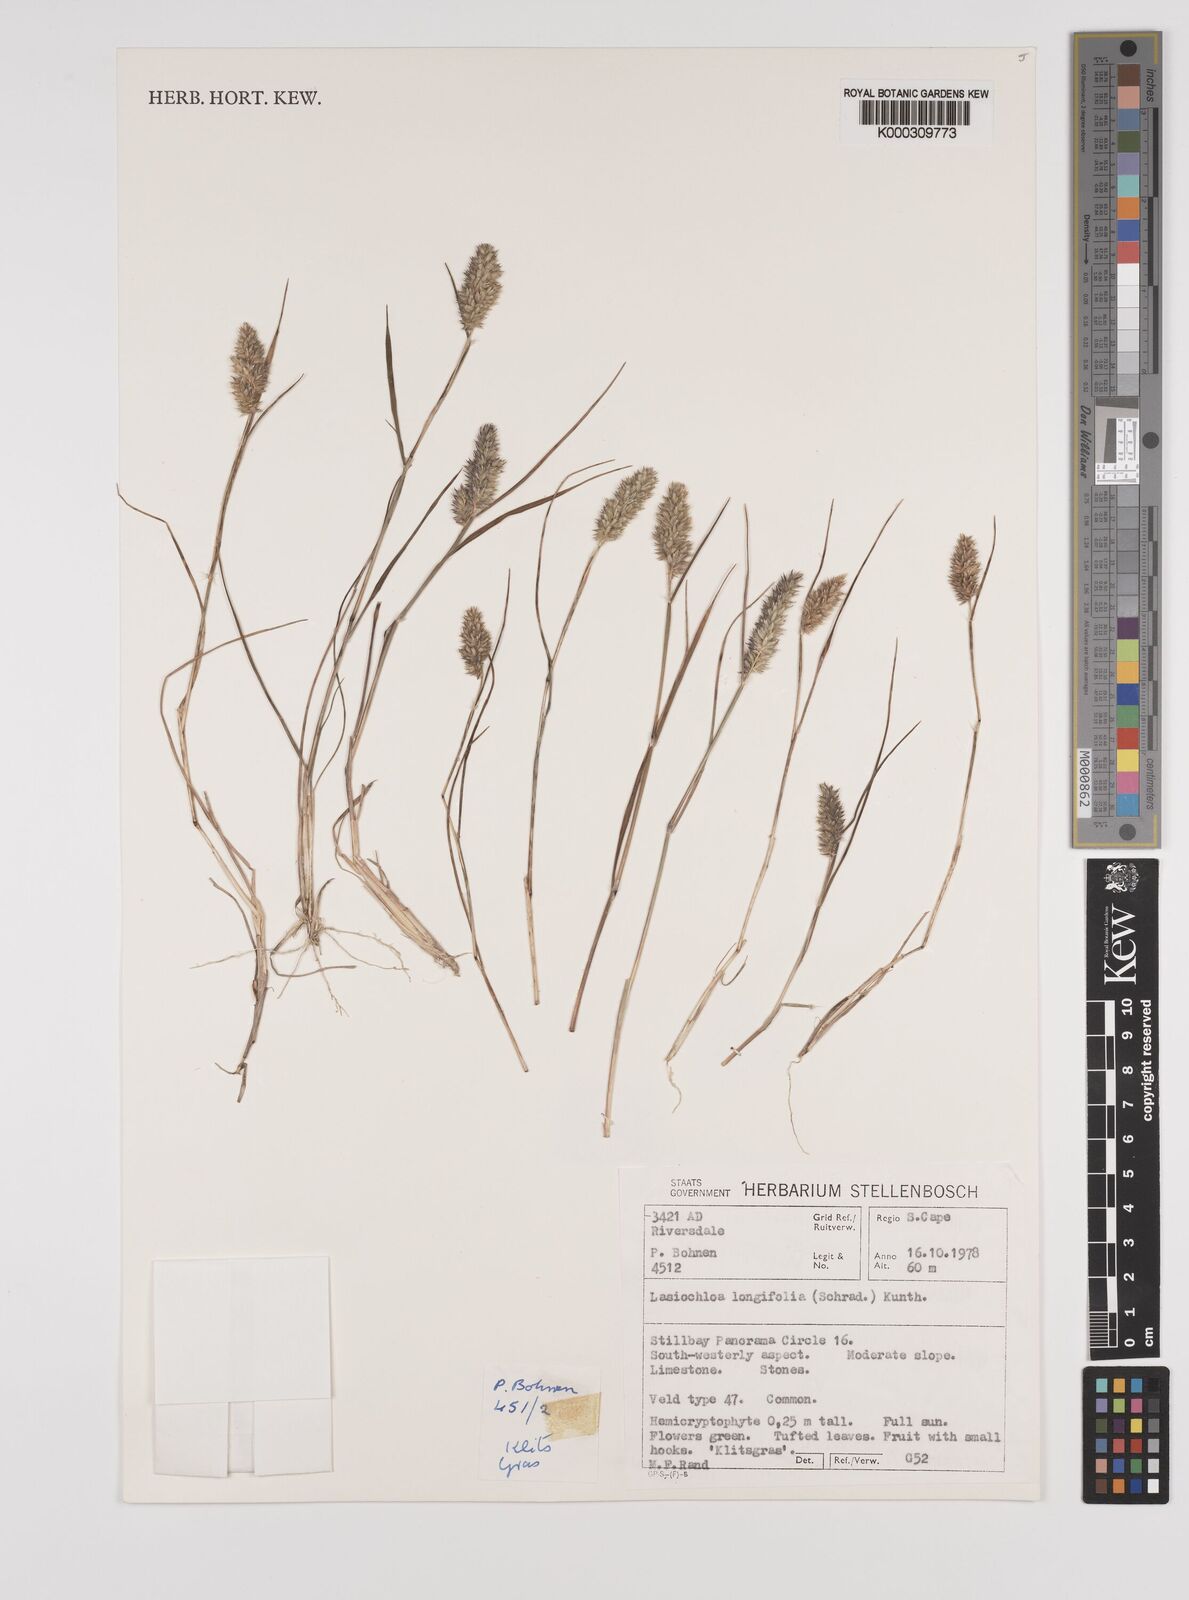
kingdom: Plantae
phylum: Tracheophyta
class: Liliopsida
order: Poales
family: Poaceae
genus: Tribolium
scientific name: Tribolium hispidum
